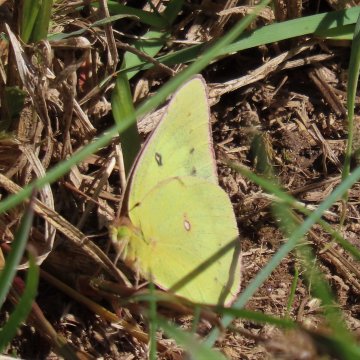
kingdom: Animalia
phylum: Arthropoda
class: Insecta
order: Lepidoptera
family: Pieridae
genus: Colias
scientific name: Colias philodice
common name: Clouded Sulphur
